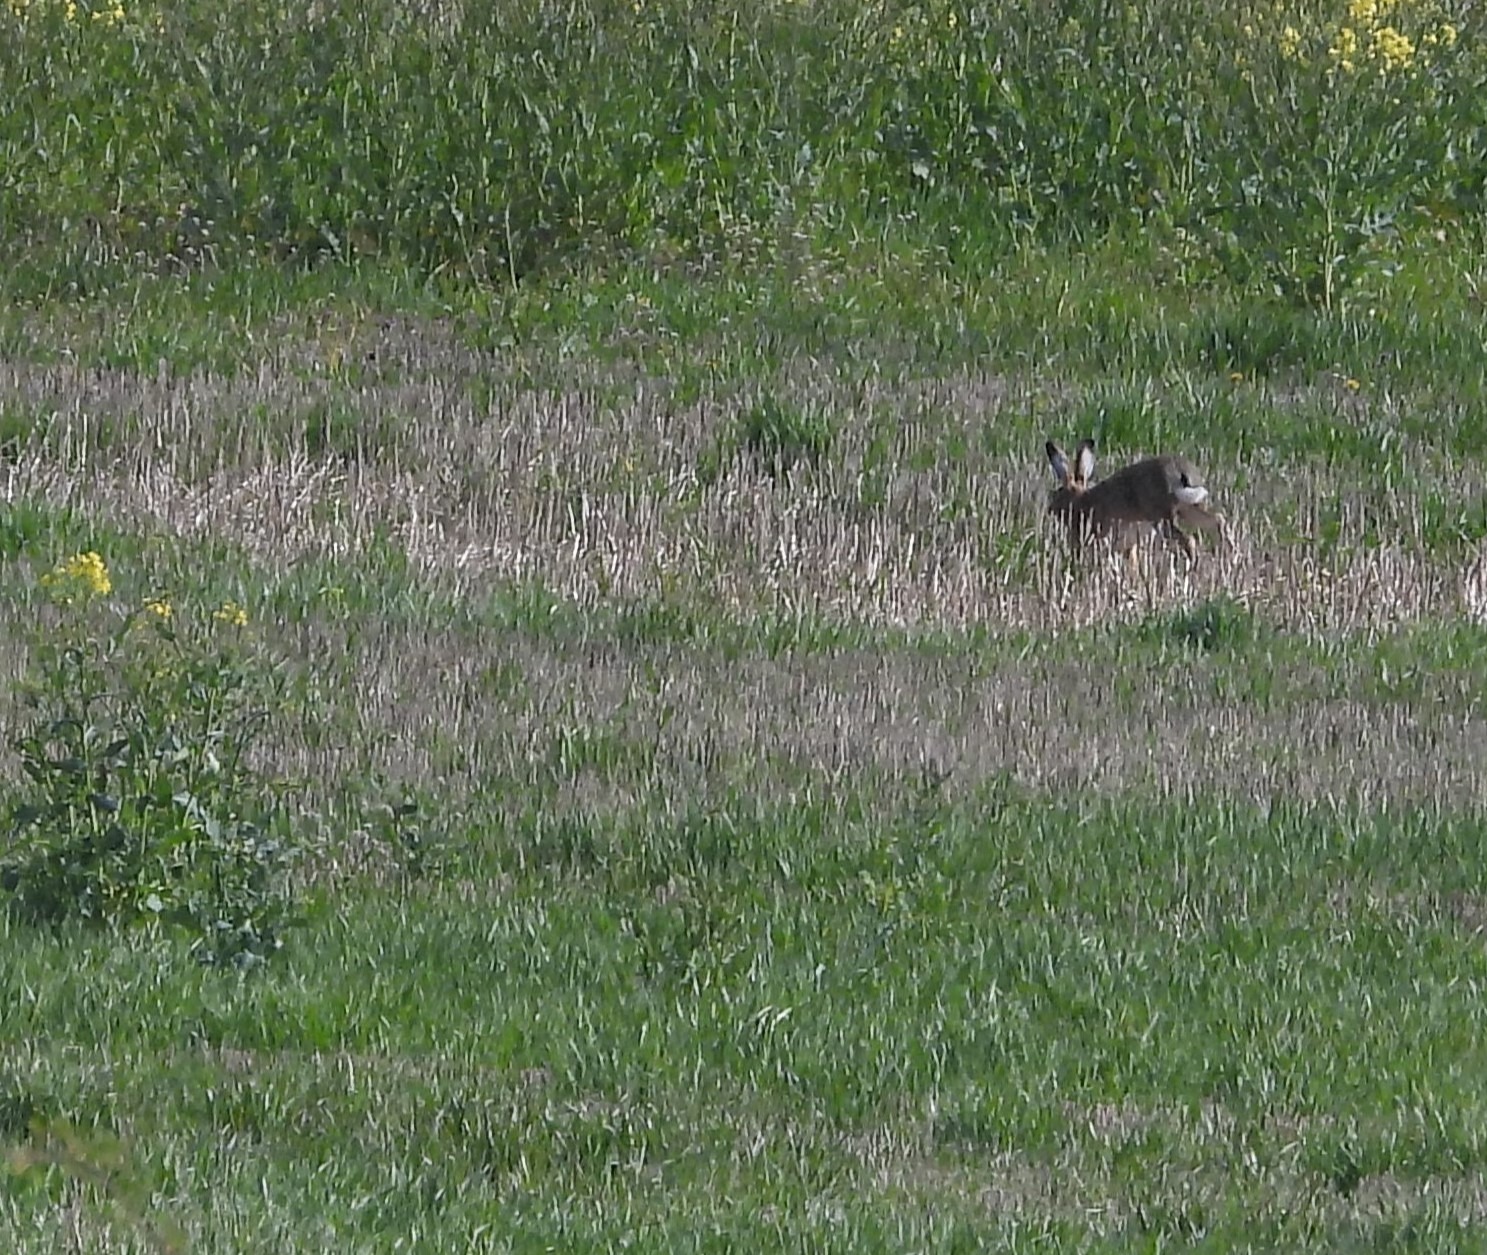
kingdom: Animalia
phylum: Chordata
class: Mammalia
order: Lagomorpha
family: Leporidae
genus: Lepus
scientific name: Lepus europaeus
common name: Hare
